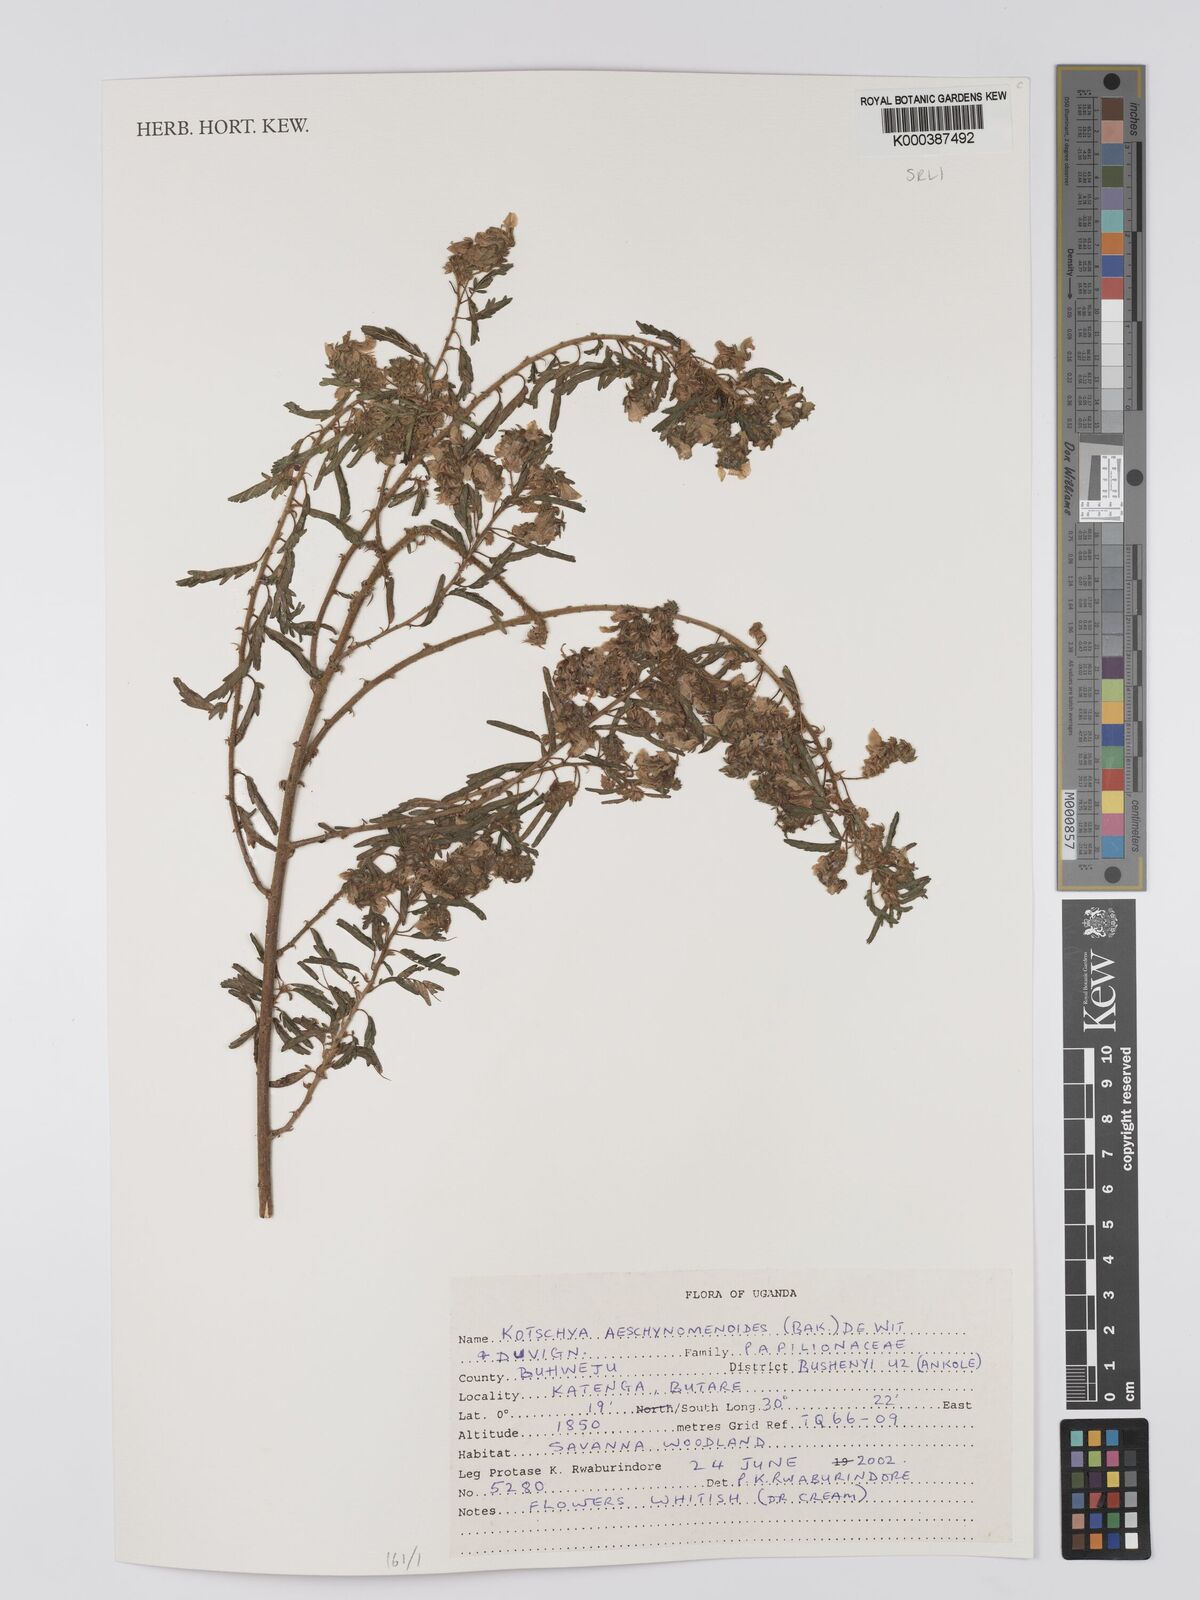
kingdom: Plantae
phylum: Tracheophyta
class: Magnoliopsida
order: Fabales
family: Fabaceae
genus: Kotschya
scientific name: Kotschya aeschynomenoides
